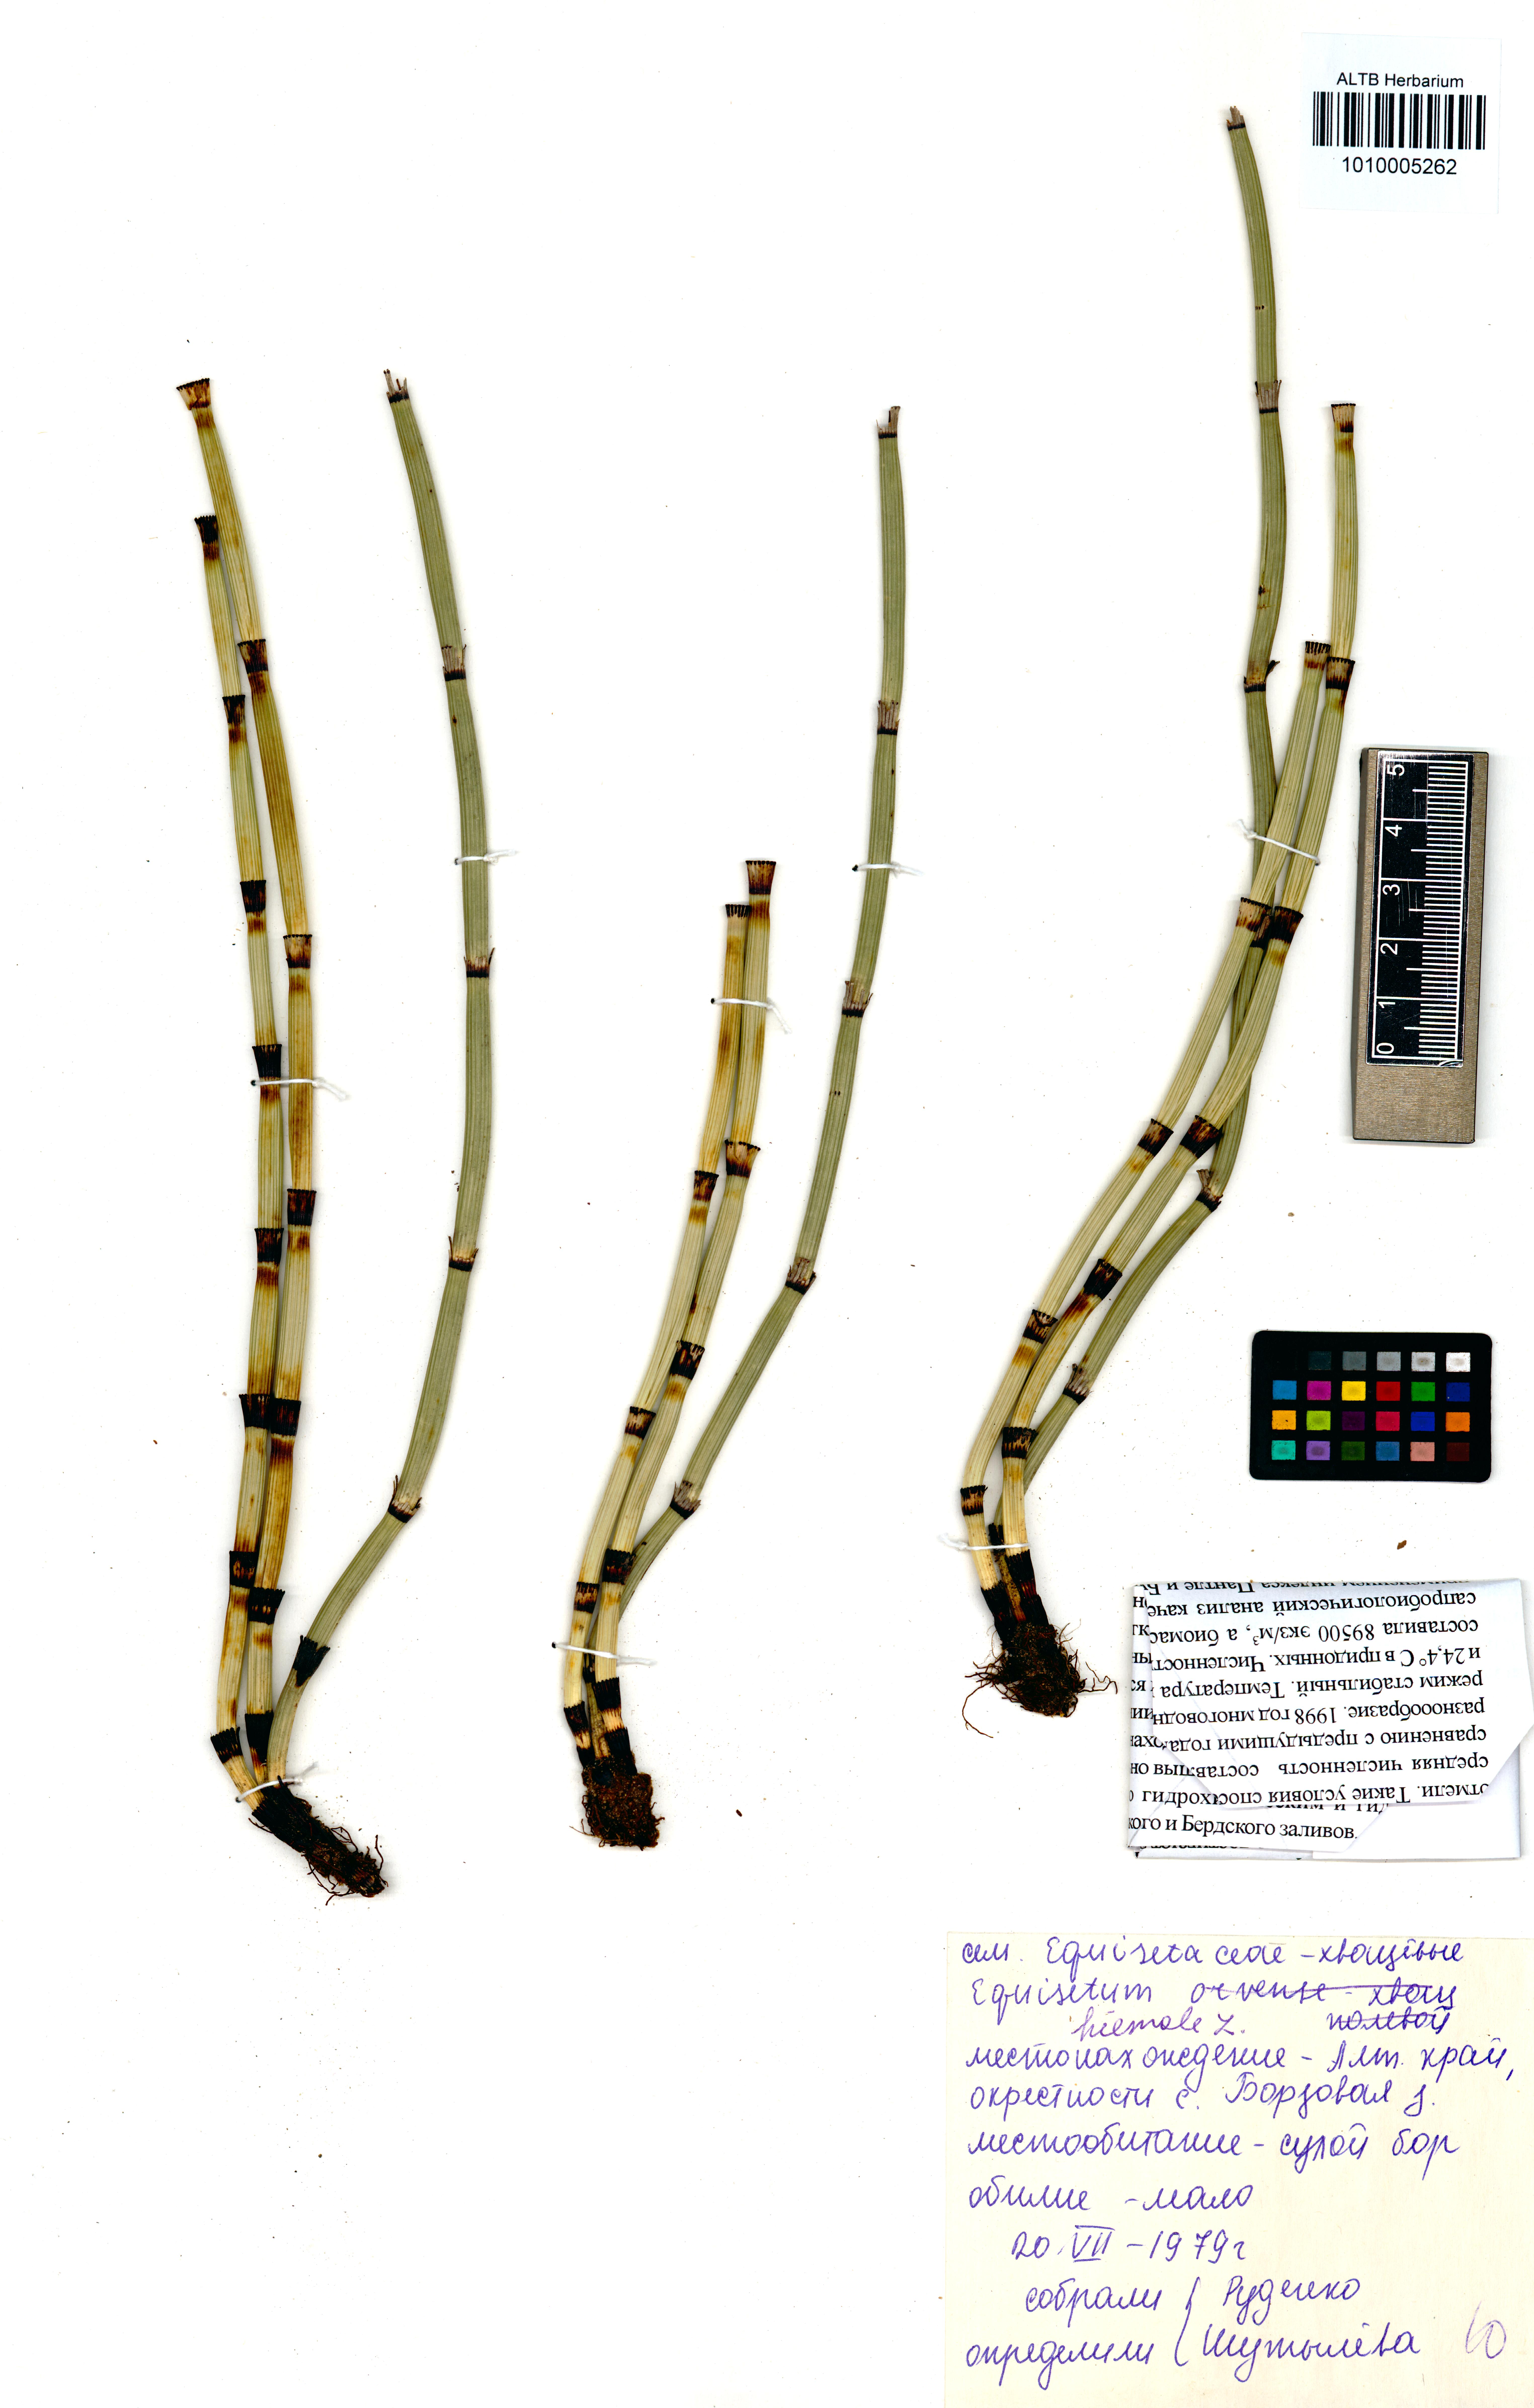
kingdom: Plantae
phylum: Tracheophyta
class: Polypodiopsida
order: Equisetales
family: Equisetaceae
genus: Equisetum
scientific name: Equisetum hyemale
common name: Rough horsetail
